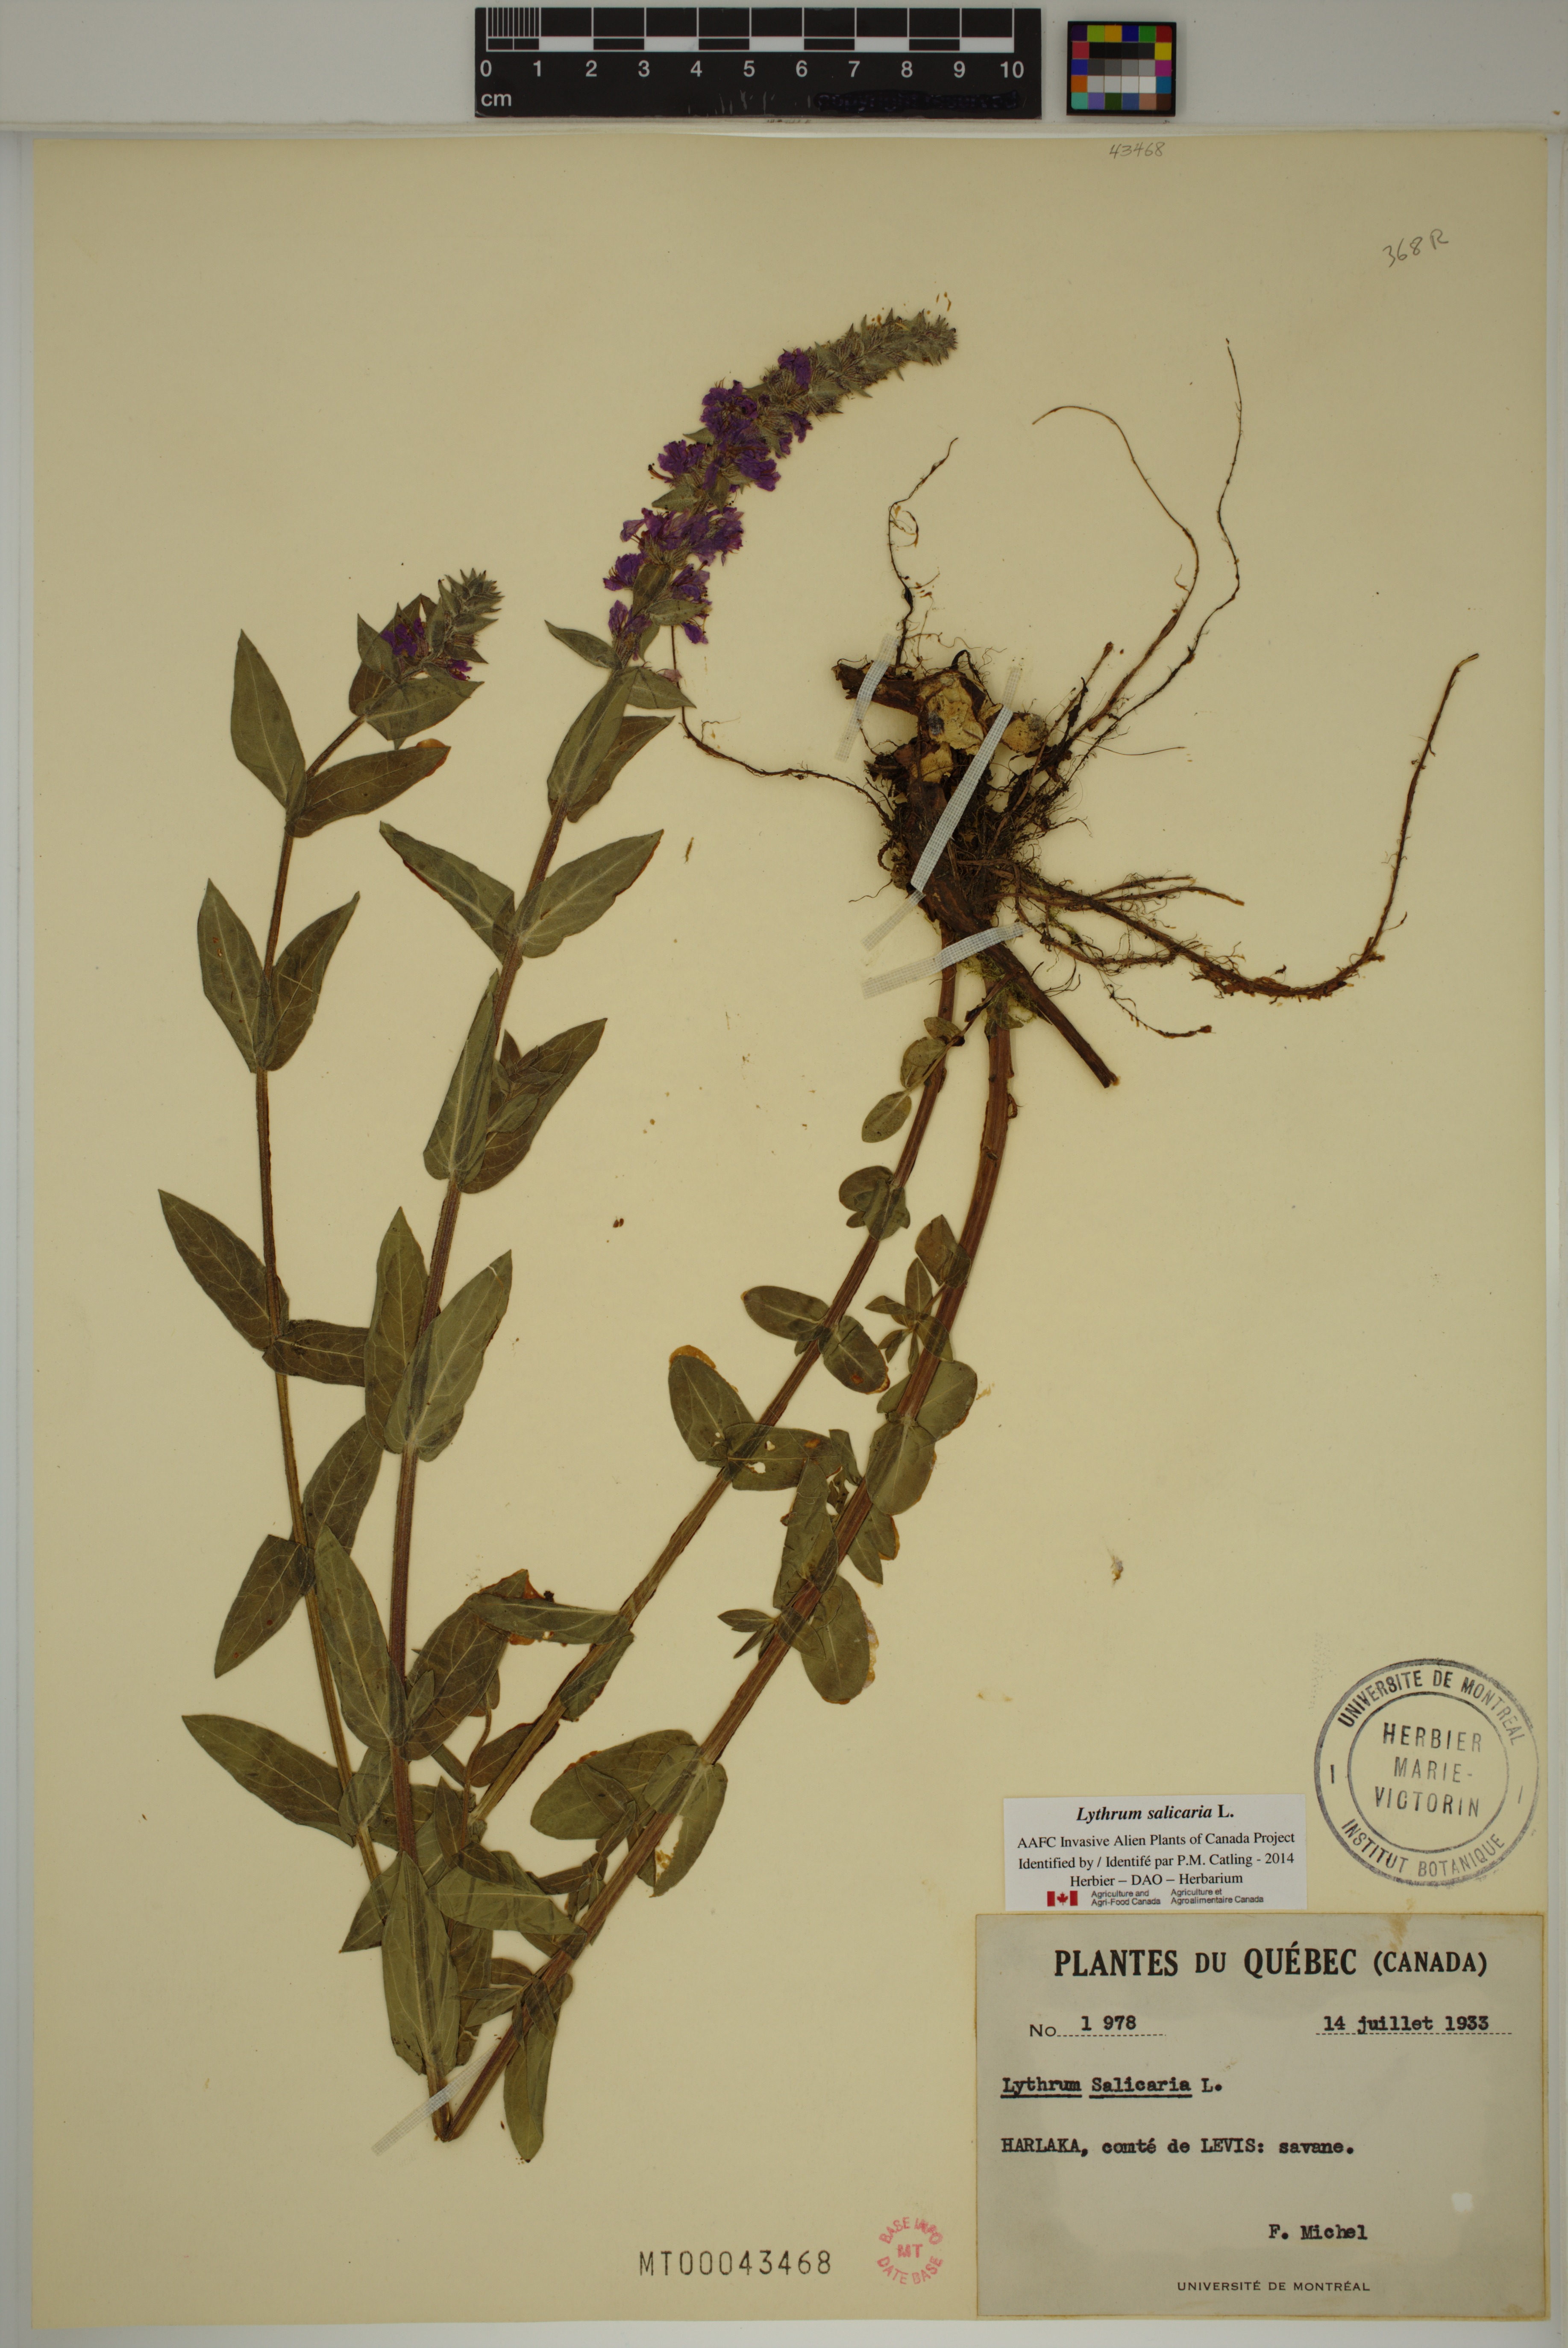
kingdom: Plantae
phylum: Tracheophyta
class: Magnoliopsida
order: Myrtales
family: Lythraceae
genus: Lythrum
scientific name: Lythrum salicaria
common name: Purple loosestrife
